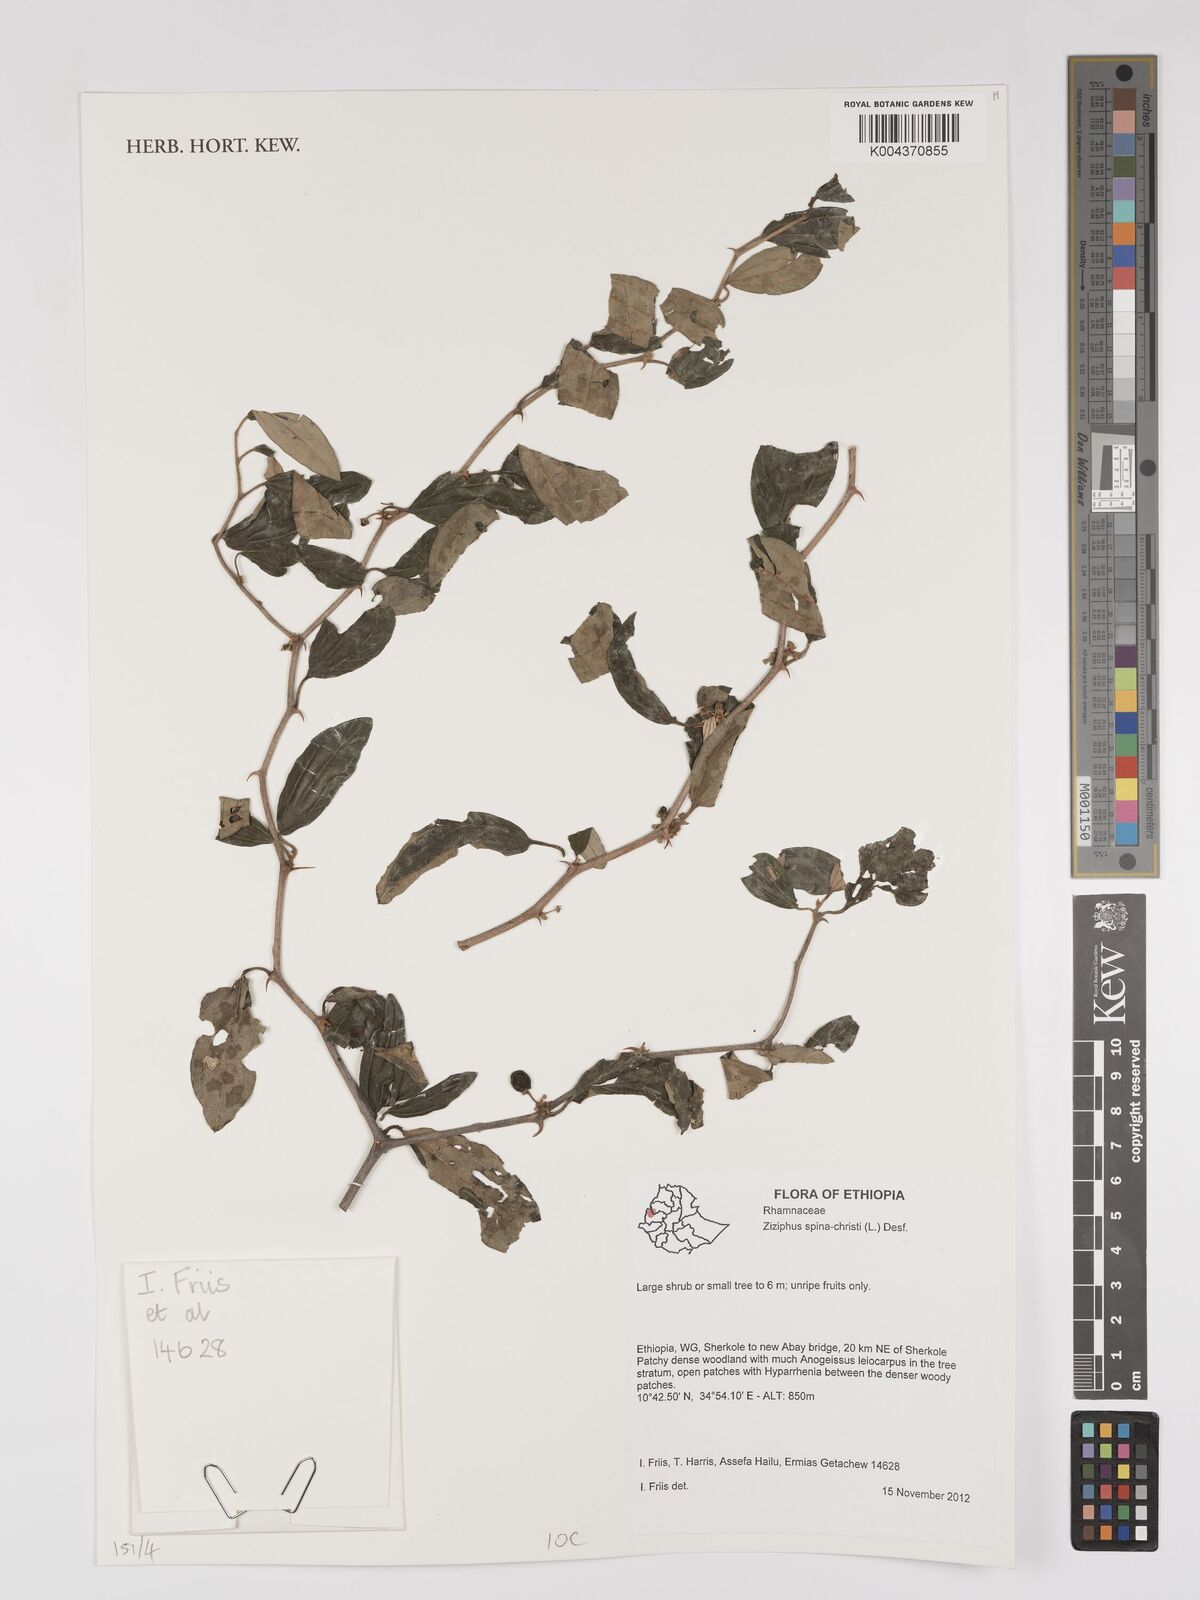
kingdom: Plantae
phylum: Tracheophyta
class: Magnoliopsida
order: Rosales
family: Rhamnaceae
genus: Ziziphus
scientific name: Ziziphus spina-christi
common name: Syrian christ-thorn
